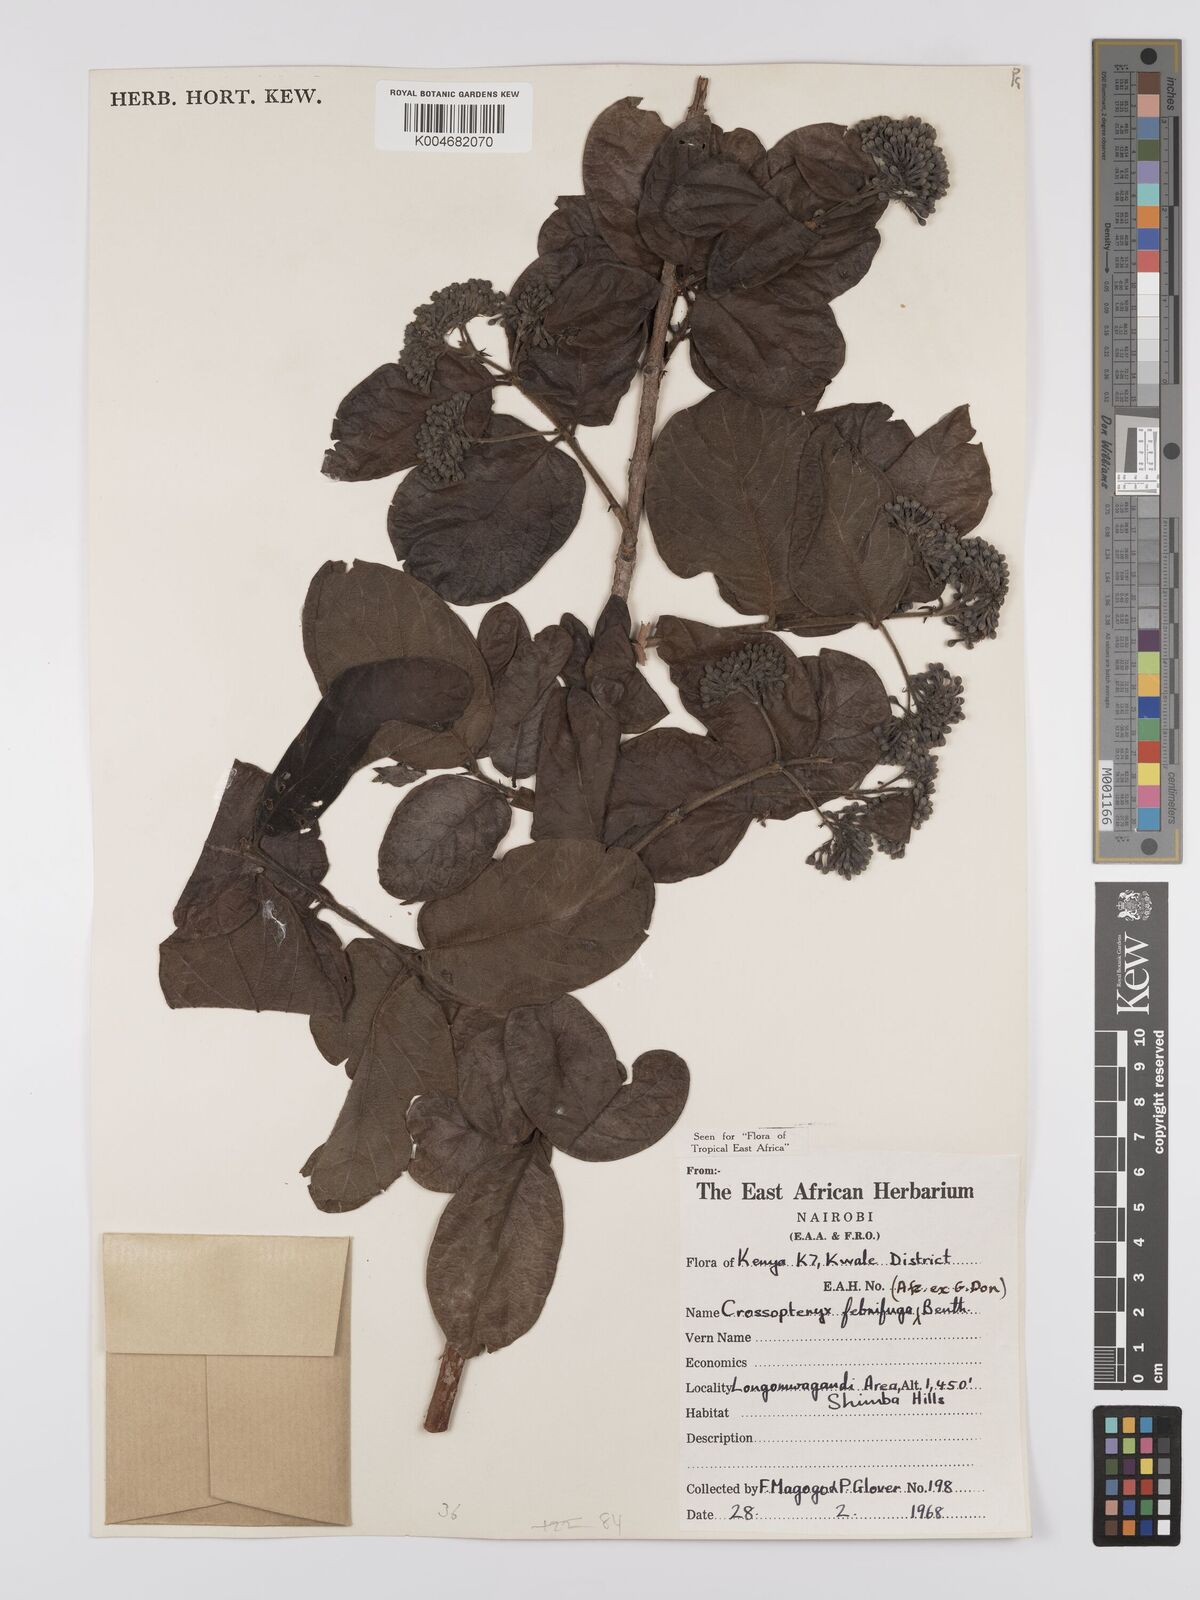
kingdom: Plantae
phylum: Tracheophyta
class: Magnoliopsida
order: Gentianales
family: Rubiaceae
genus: Crossopteryx
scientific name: Crossopteryx febrifuga
